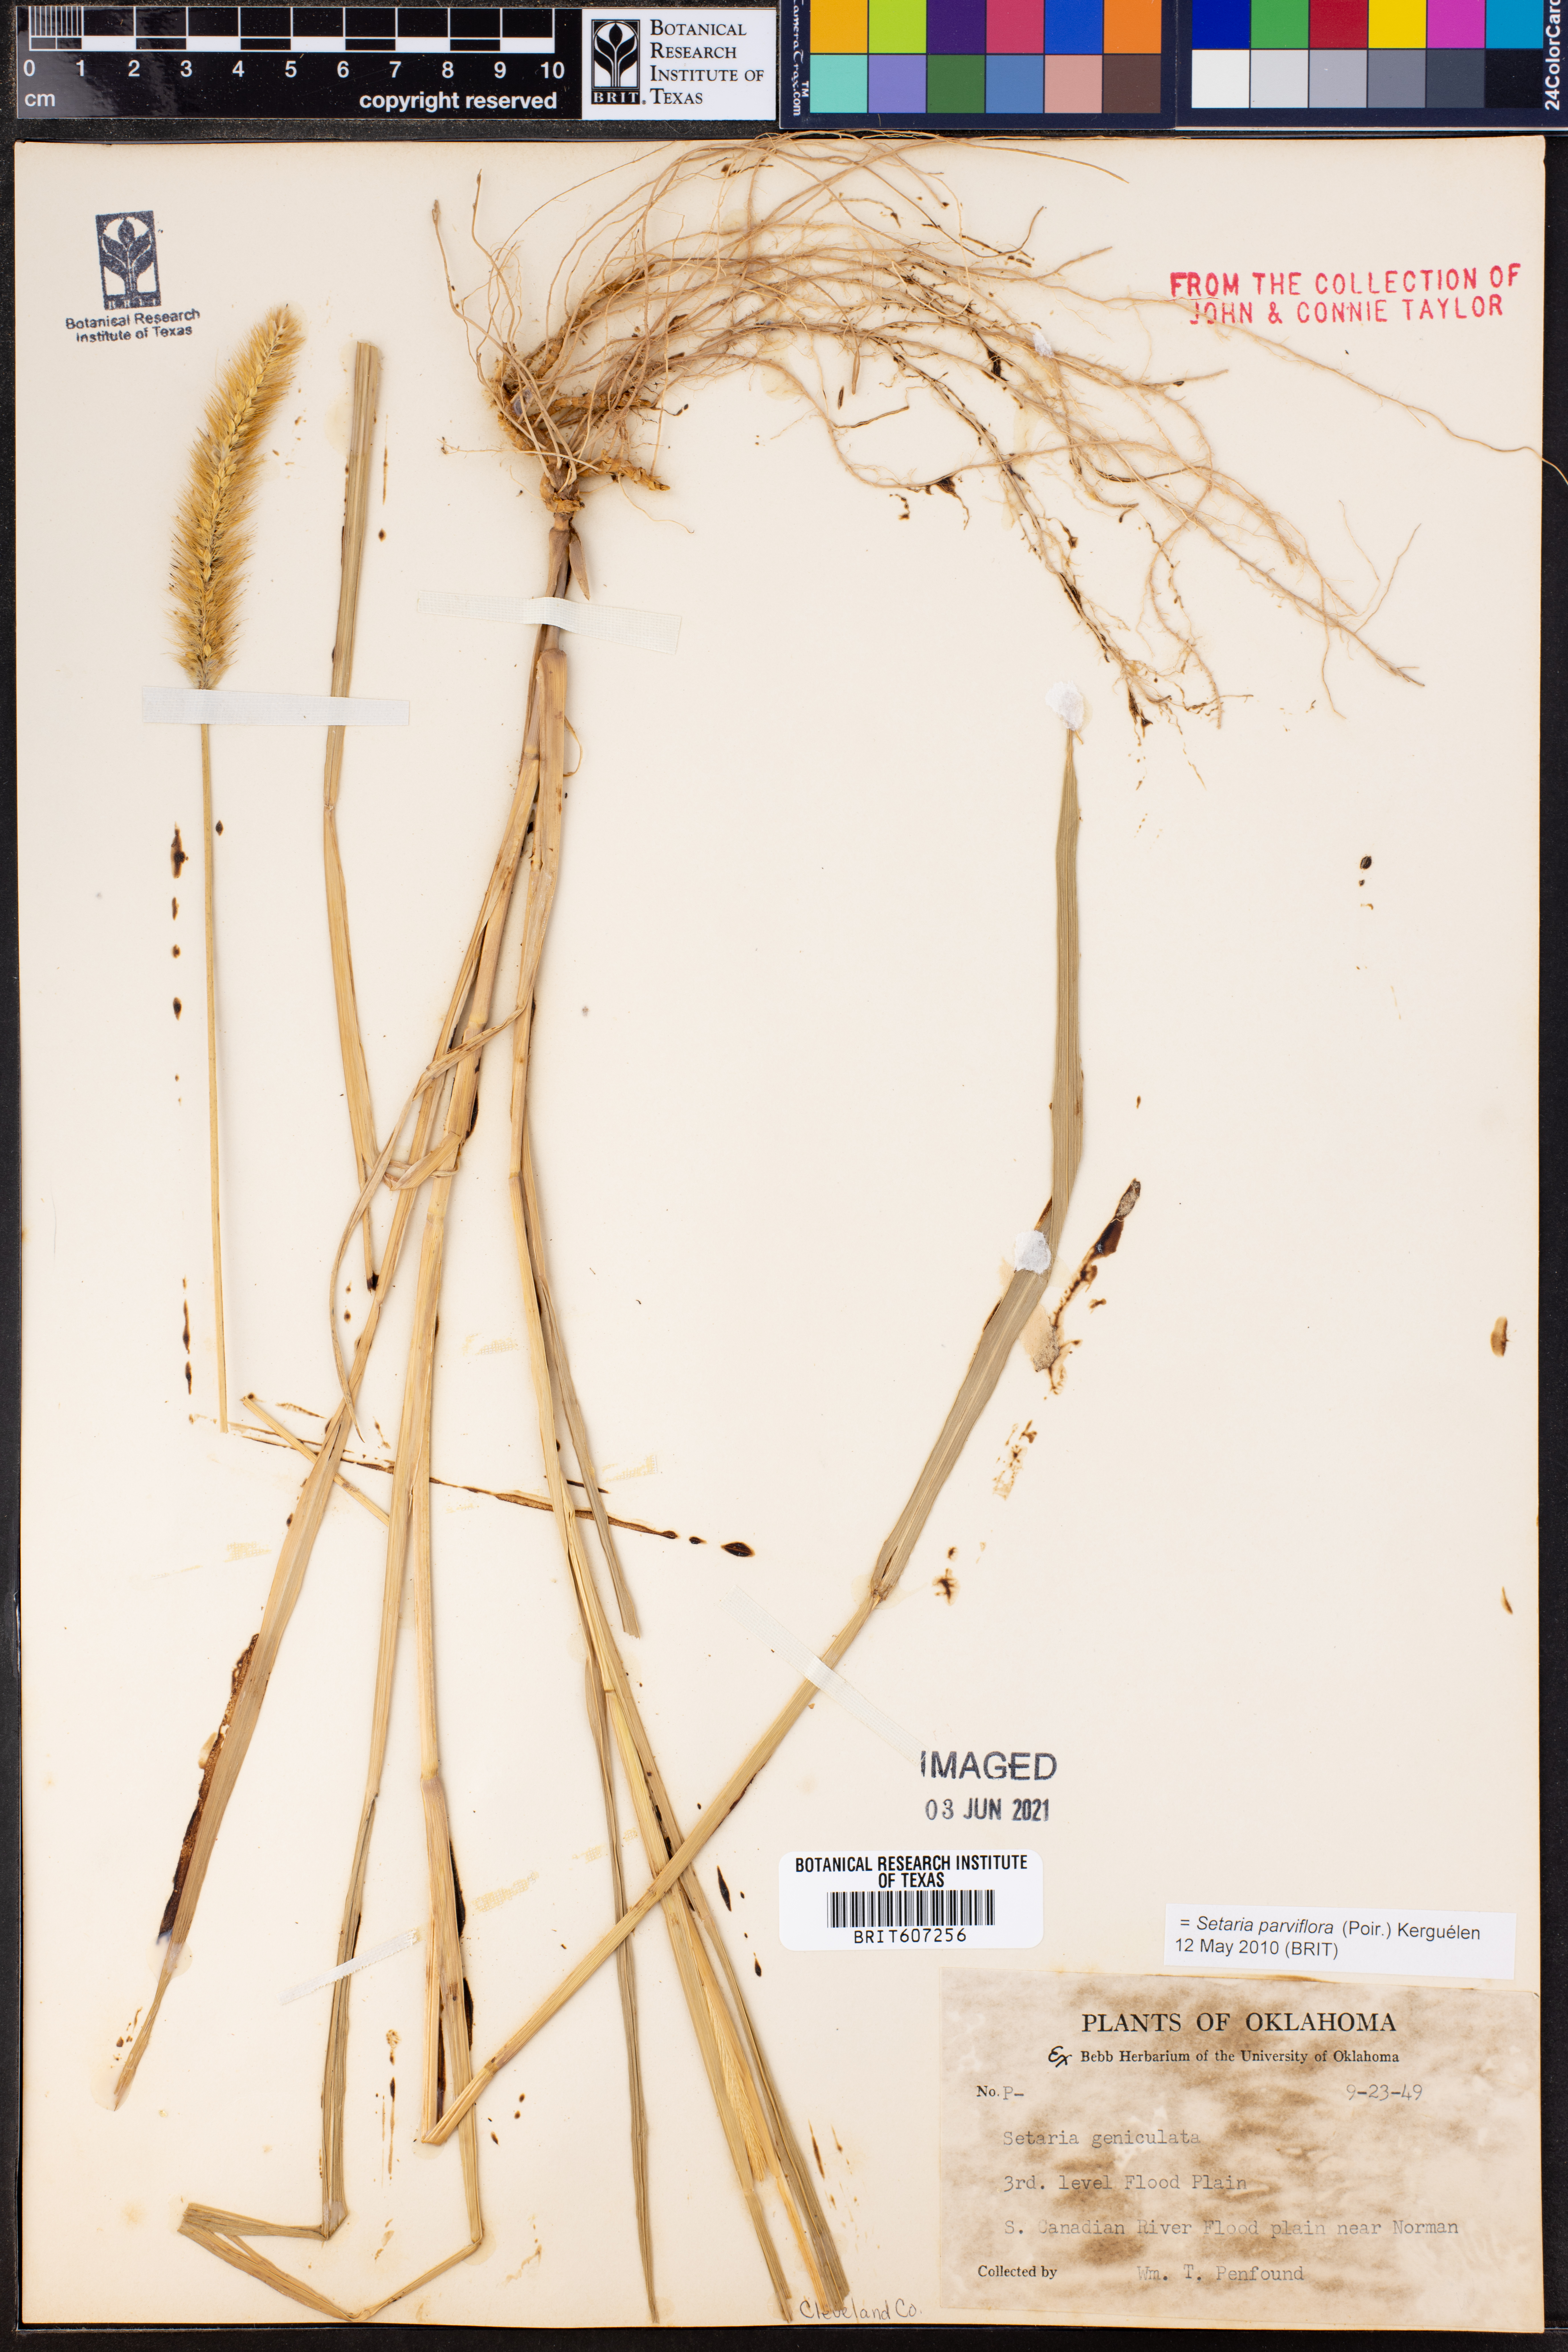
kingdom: Plantae
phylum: Tracheophyta
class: Liliopsida
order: Poales
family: Poaceae
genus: Setaria
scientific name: Setaria parviflora
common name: Knotroot bristle-grass
